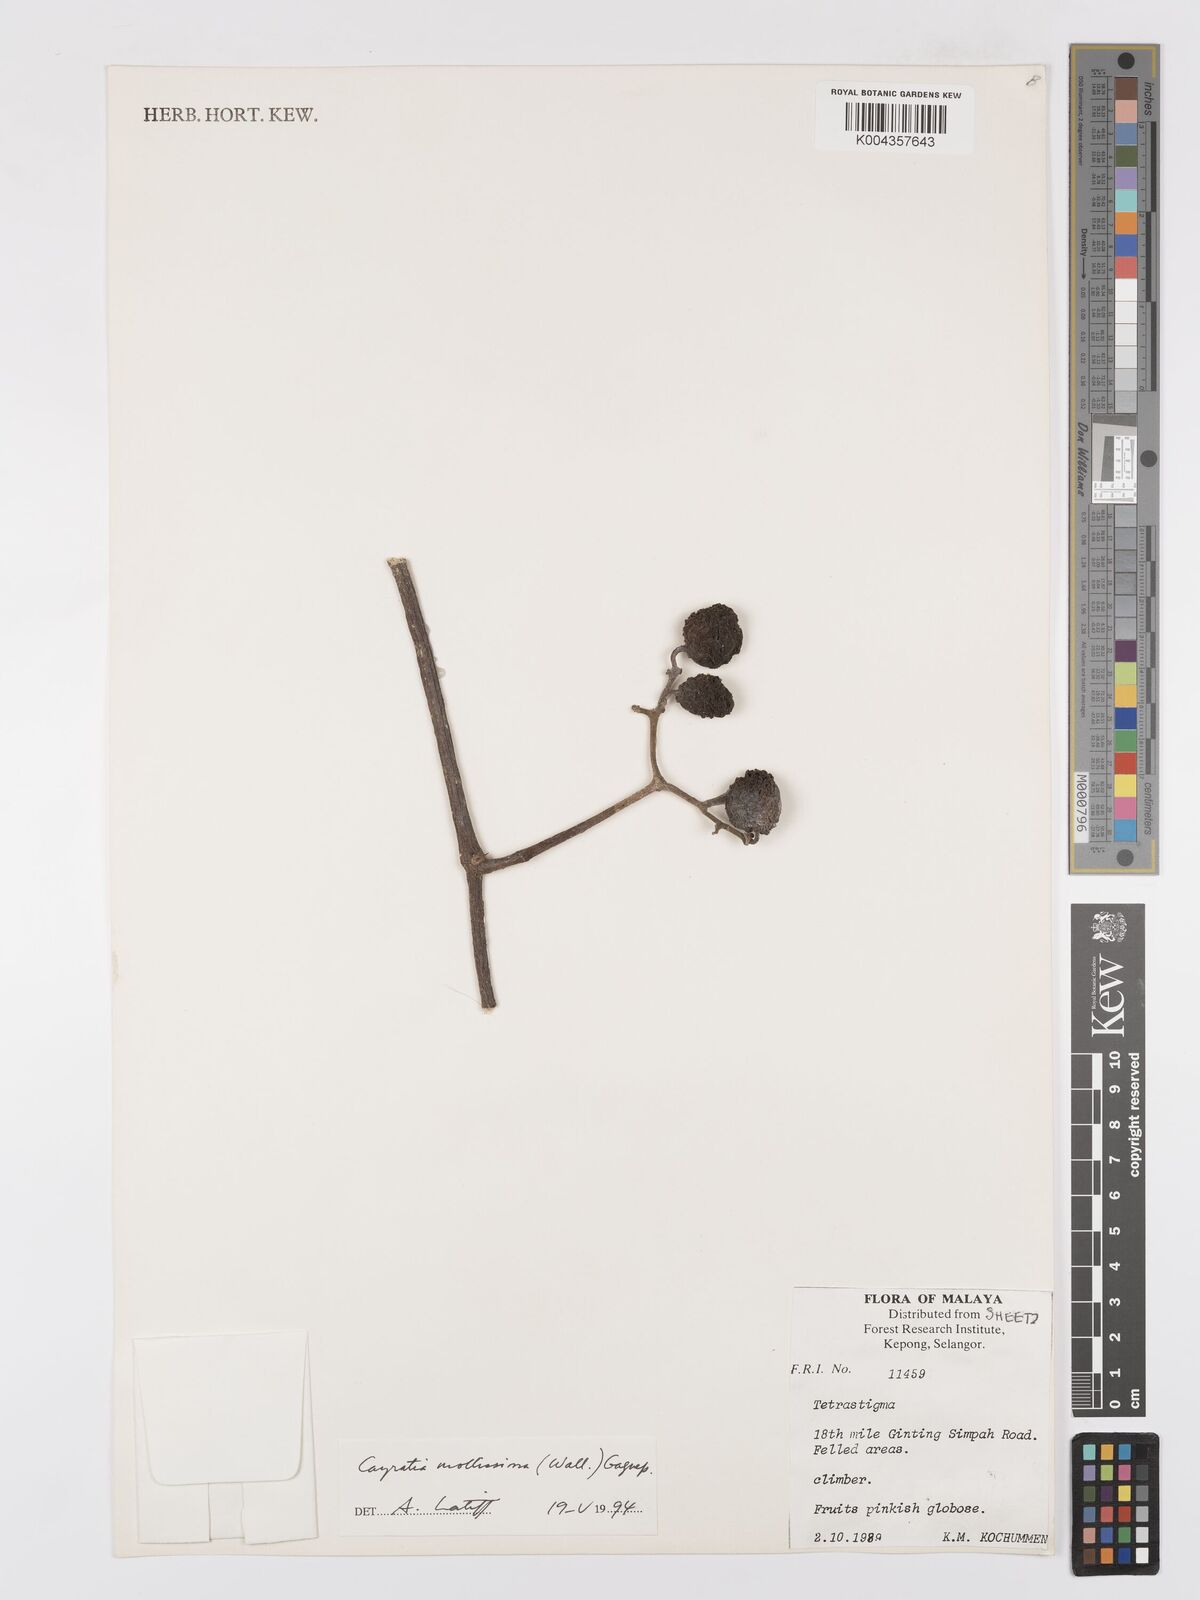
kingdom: Plantae
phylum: Tracheophyta
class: Magnoliopsida
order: Vitales
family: Vitaceae
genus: Cayratia
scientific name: Cayratia mollissima
